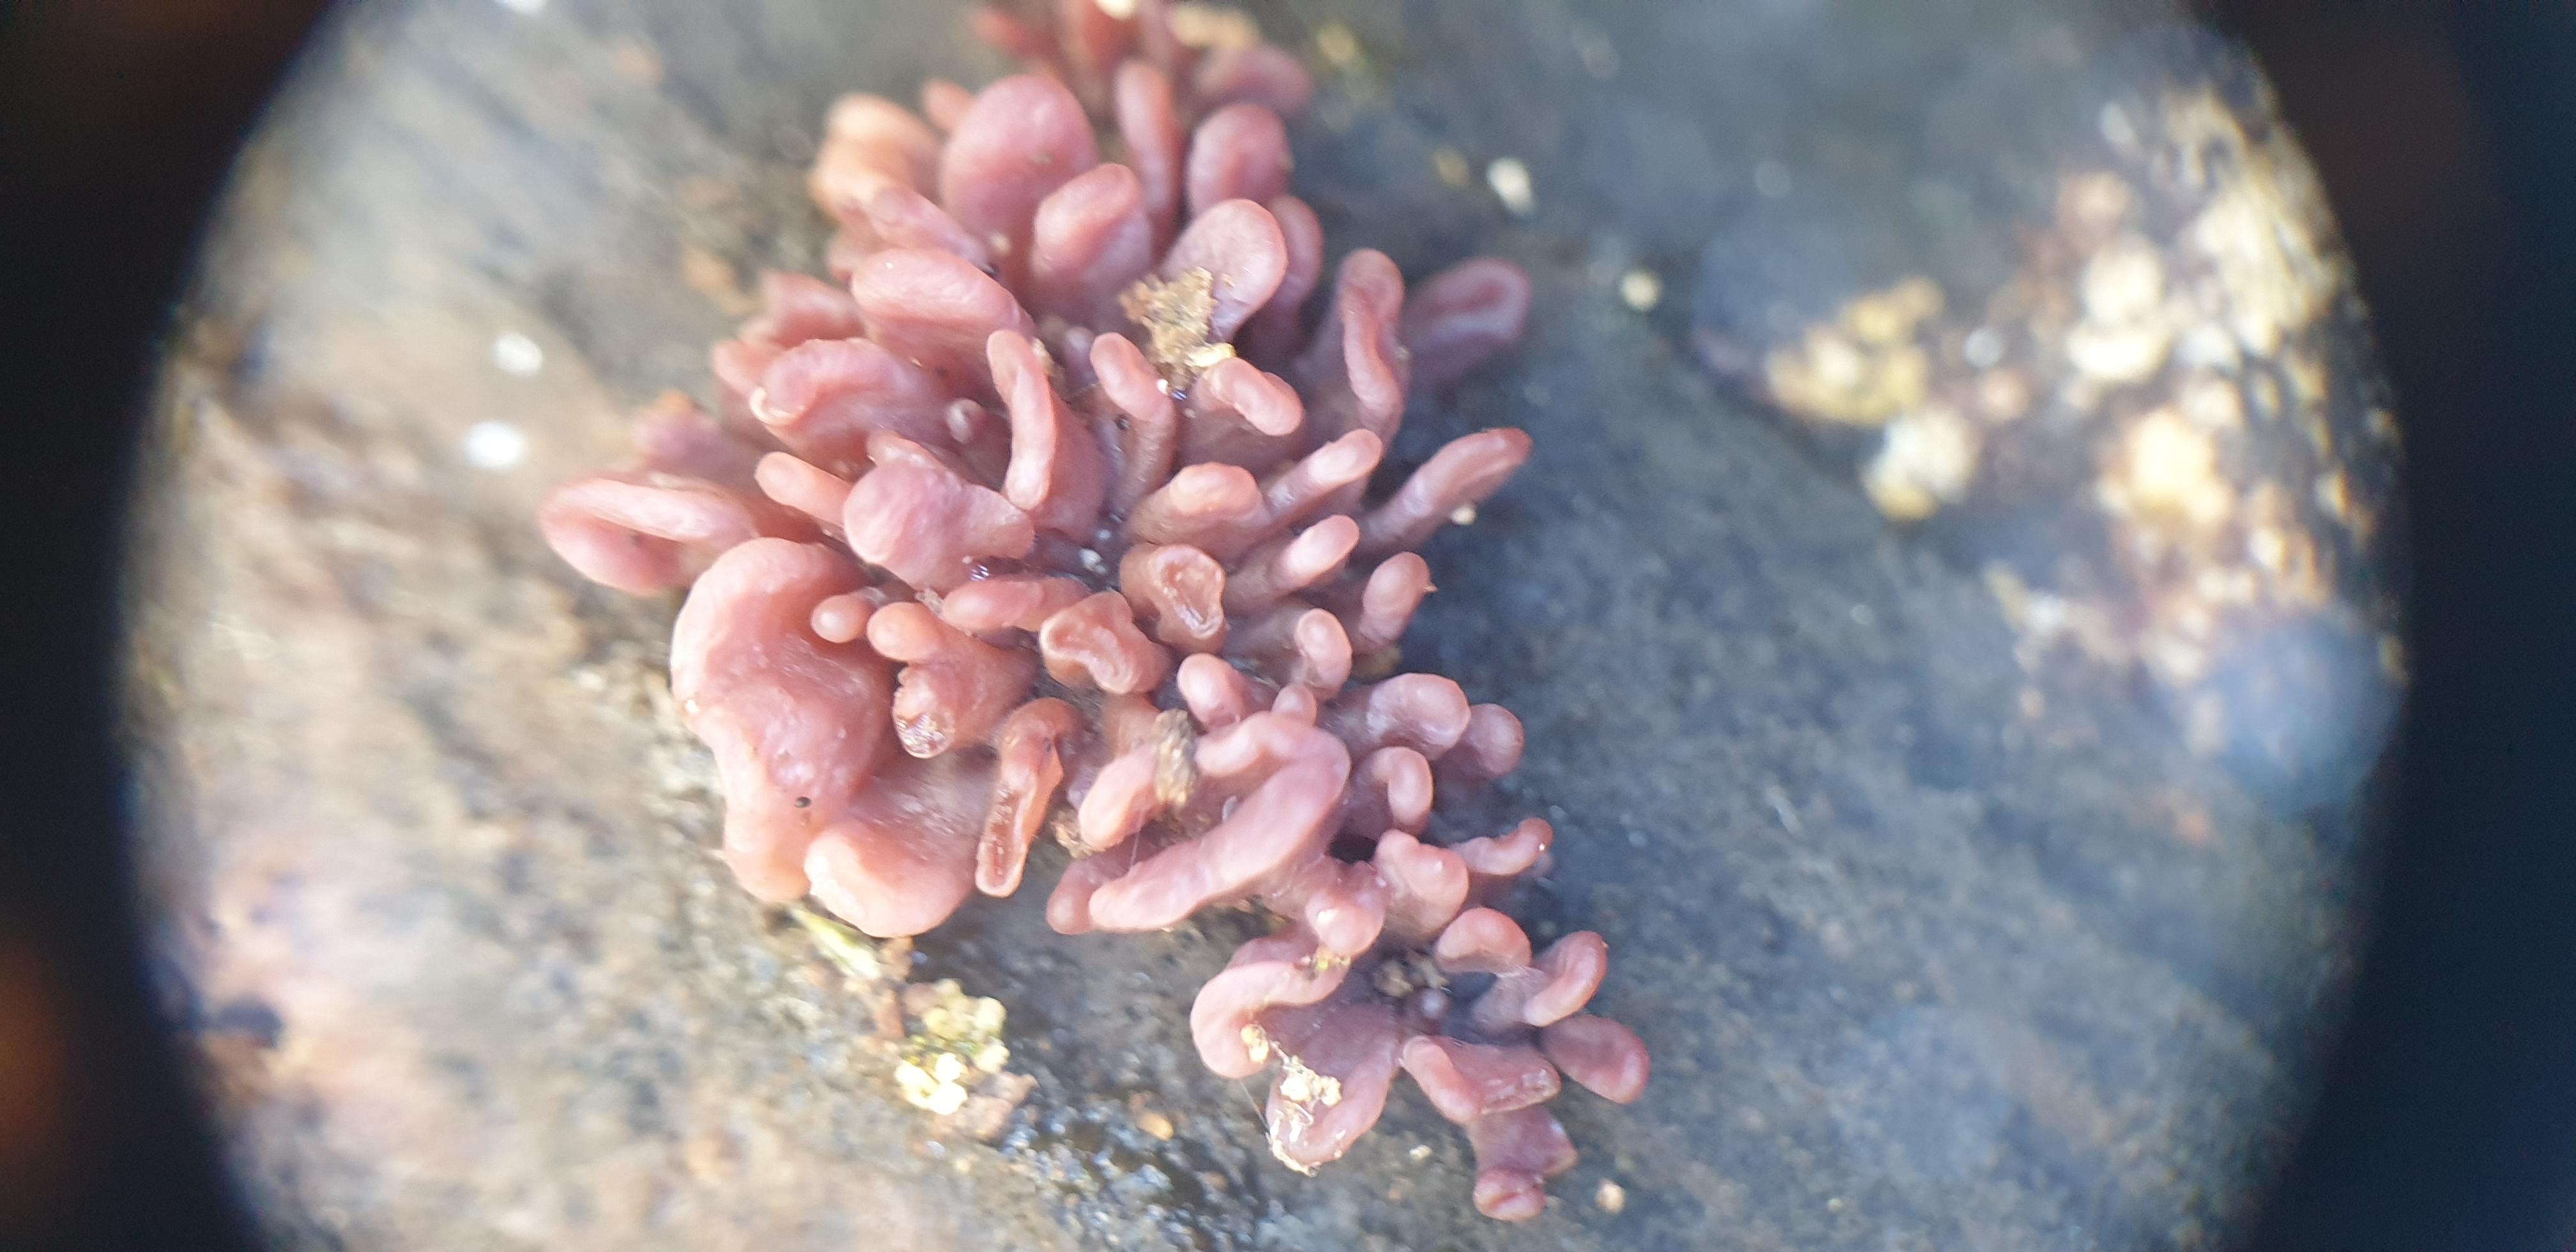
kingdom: Fungi
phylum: Ascomycota
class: Leotiomycetes
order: Helotiales
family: Gelatinodiscaceae
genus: Ascocoryne
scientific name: Ascocoryne sarcoides
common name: rødlilla sejskive
